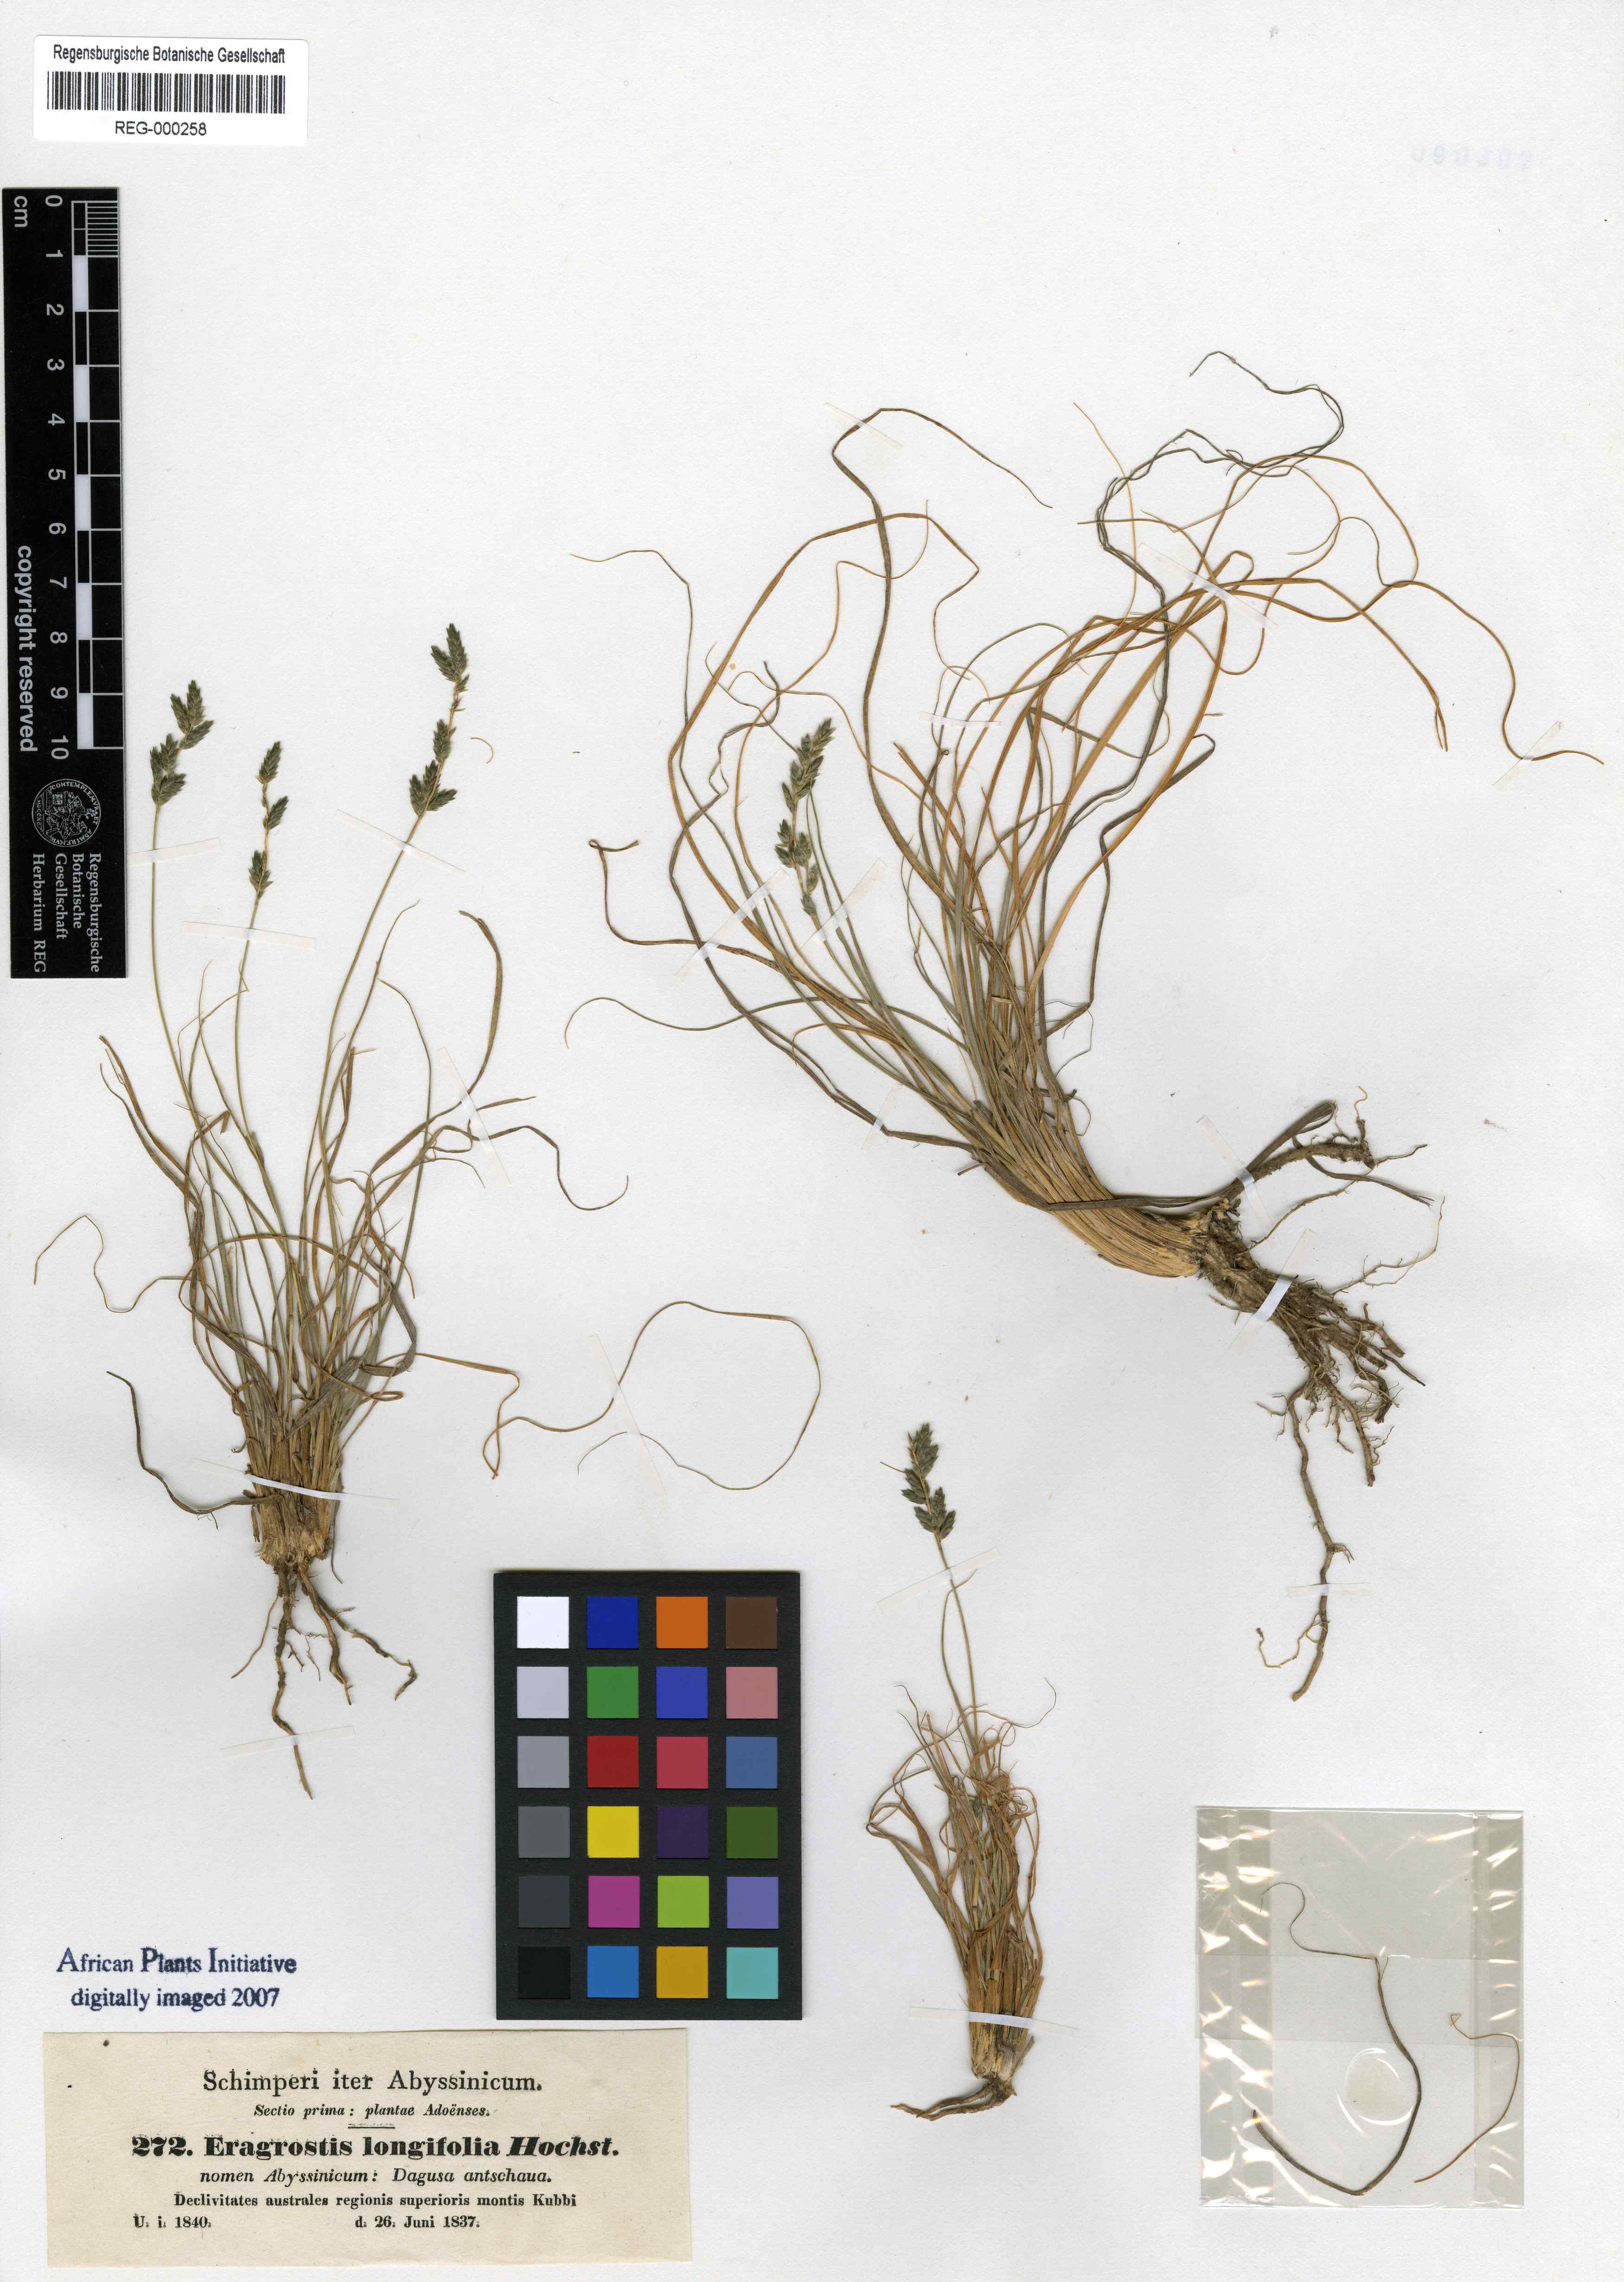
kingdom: Plantae
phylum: Tracheophyta
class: Liliopsida
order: Poales
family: Poaceae
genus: Eragrostis
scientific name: Eragrostis longifolia
